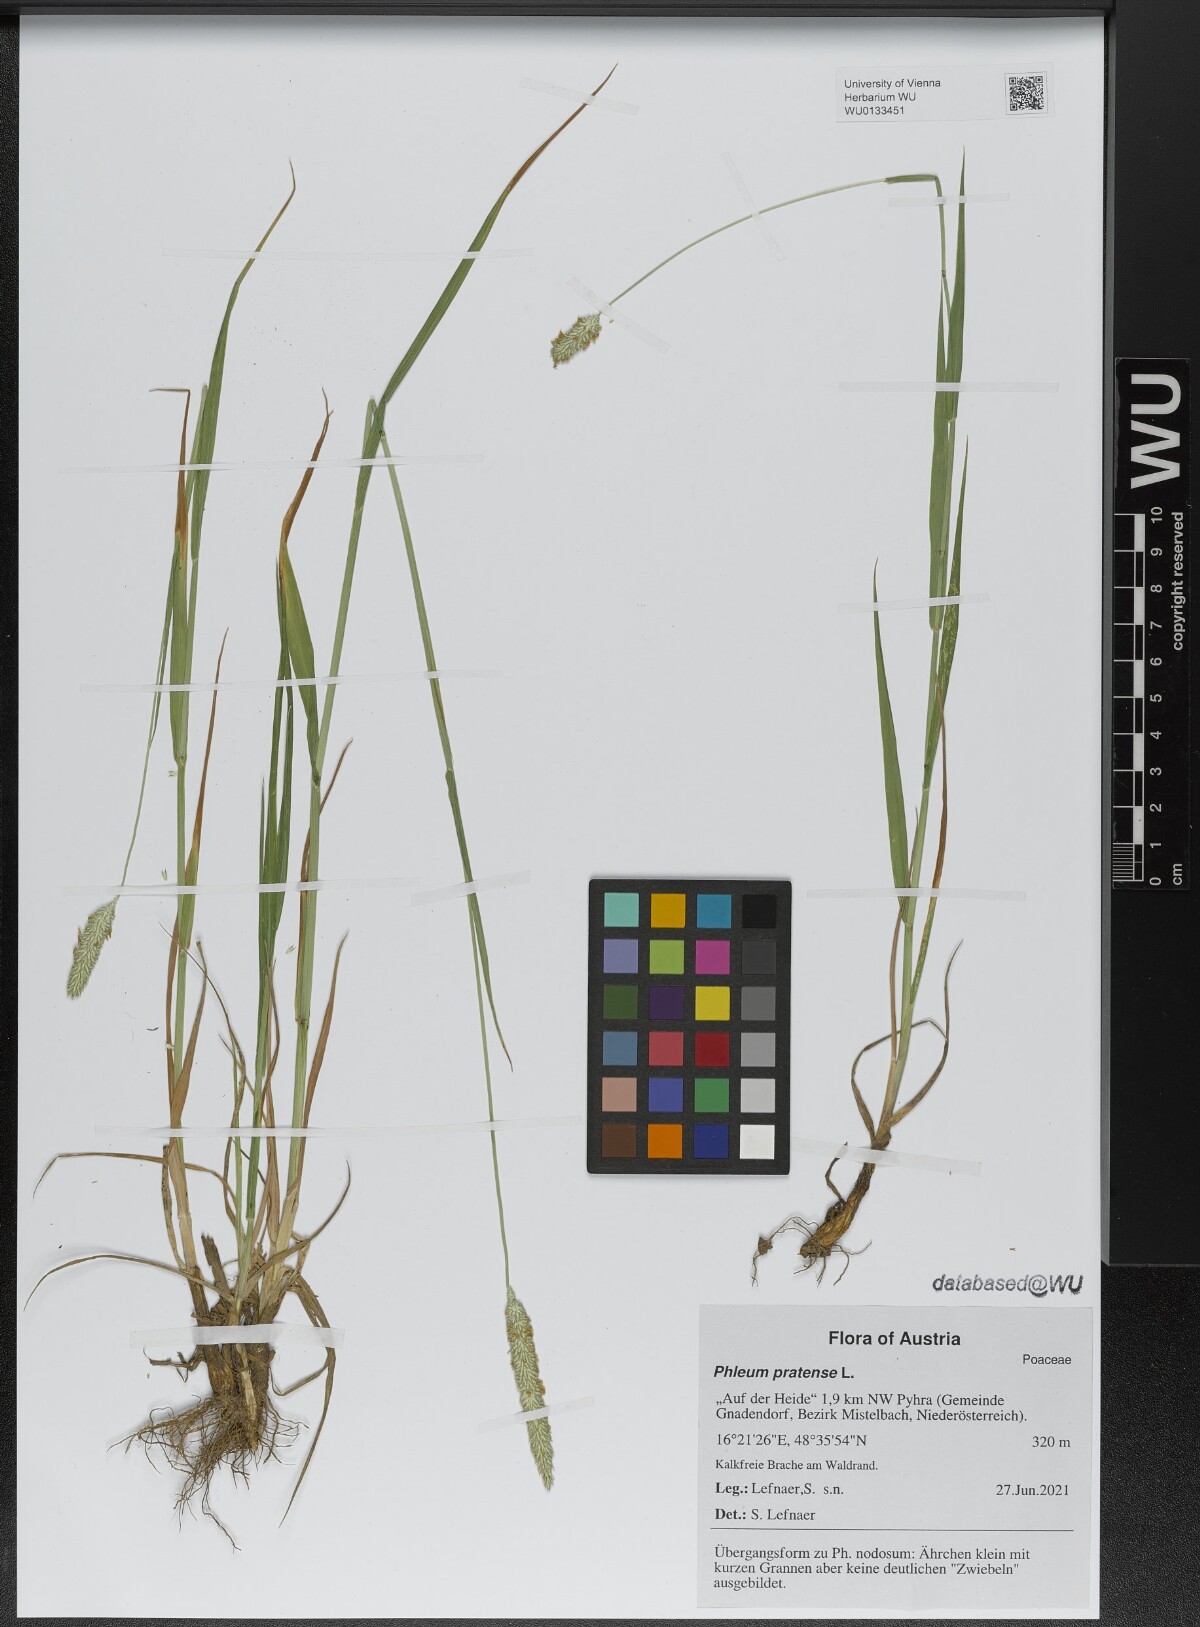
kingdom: Plantae
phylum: Tracheophyta
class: Liliopsida
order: Poales
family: Poaceae
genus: Phleum
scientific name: Phleum pratense
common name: Timothy grass
